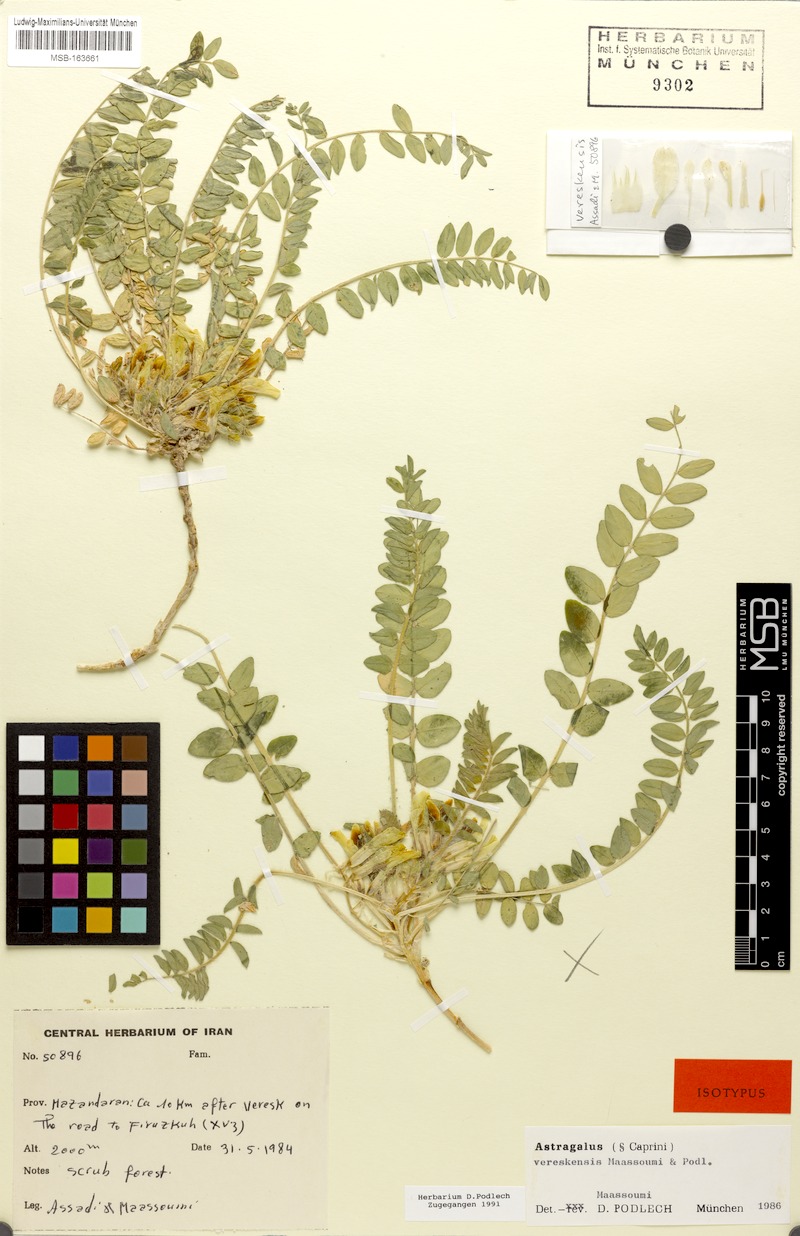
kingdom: Plantae
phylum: Tracheophyta
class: Magnoliopsida
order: Fabales
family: Fabaceae
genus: Astragalus
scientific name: Astragalus vereskensis
